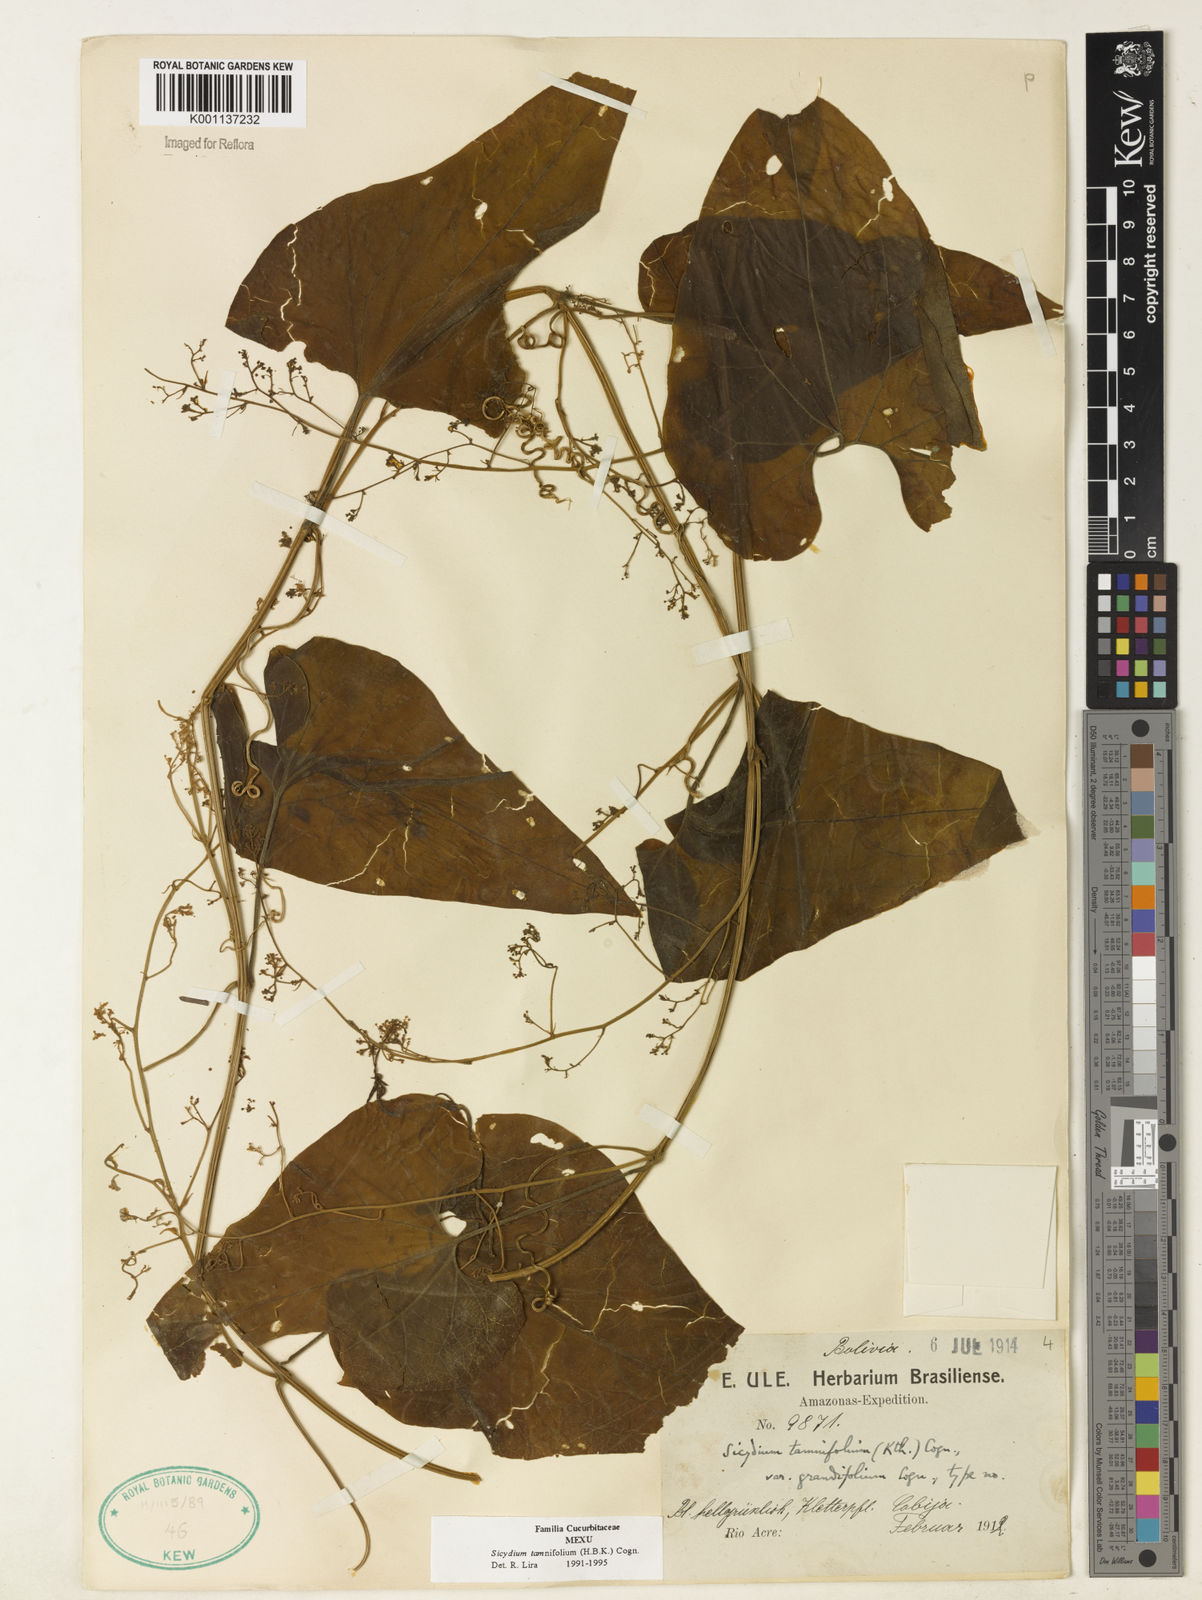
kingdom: Plantae
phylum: Tracheophyta
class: Magnoliopsida
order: Cucurbitales
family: Cucurbitaceae
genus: Sicydium
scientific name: Sicydium tamnifolium
